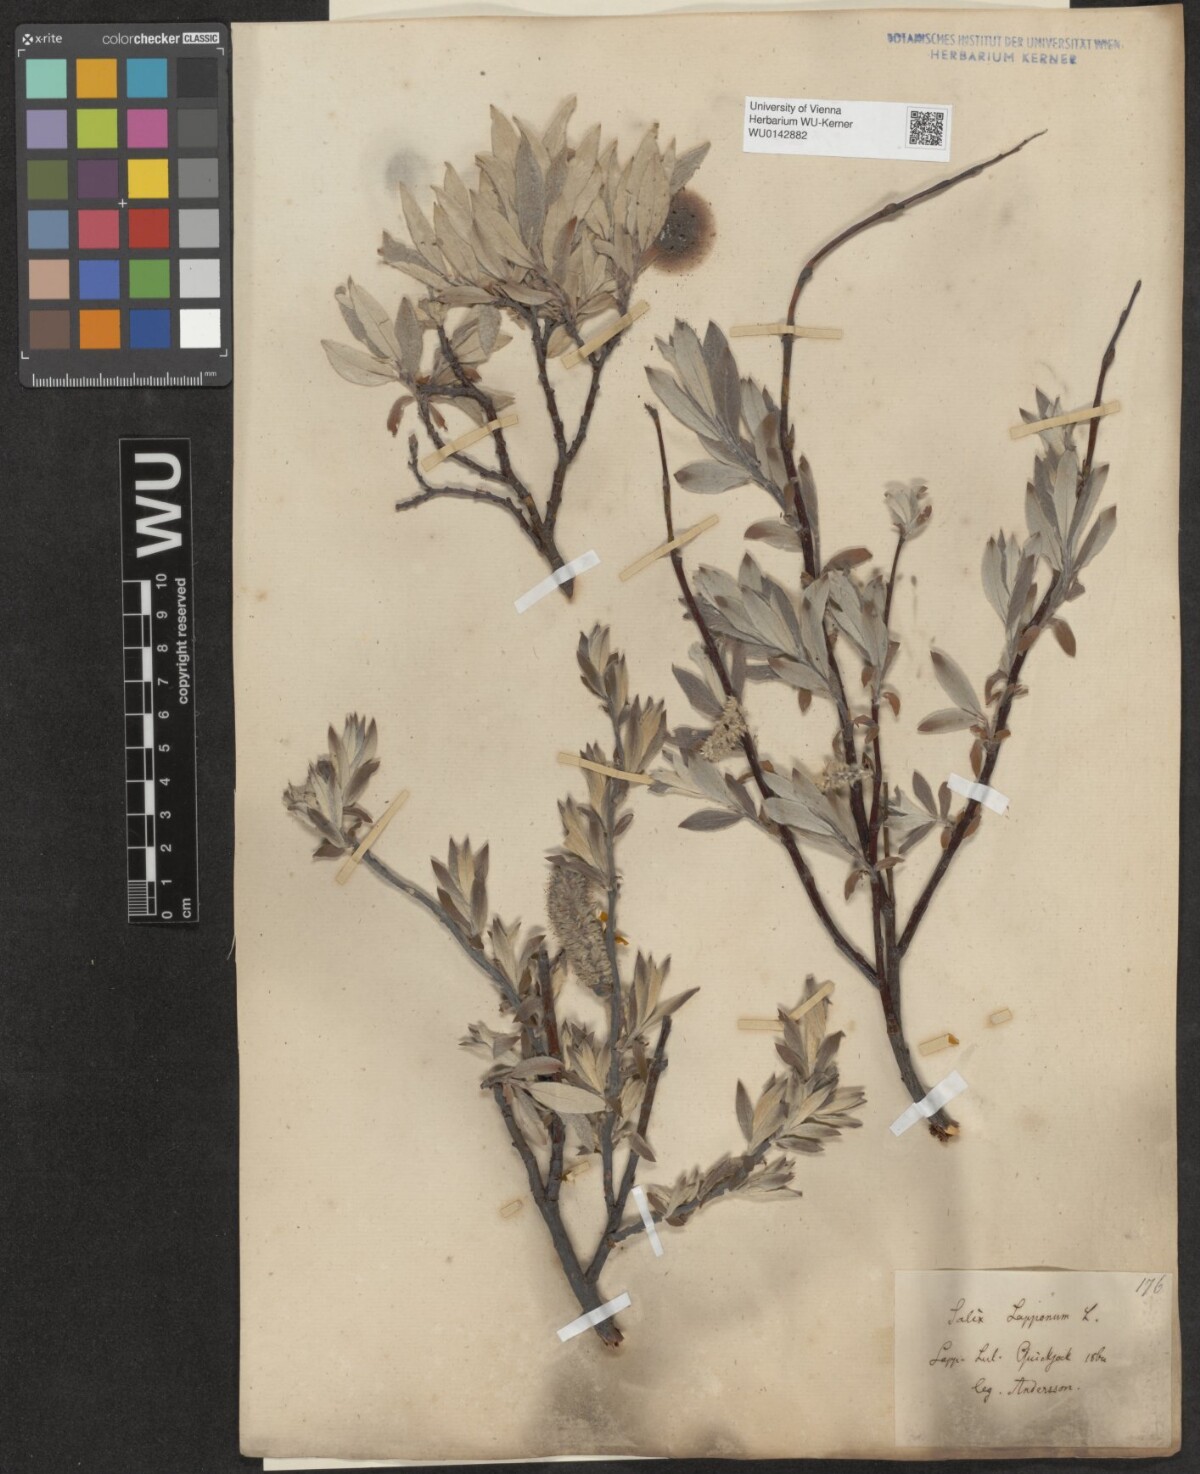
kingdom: Plantae
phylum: Tracheophyta
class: Magnoliopsida
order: Malpighiales
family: Salicaceae
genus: Salix
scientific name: Salix lapponum
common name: Downy willow
